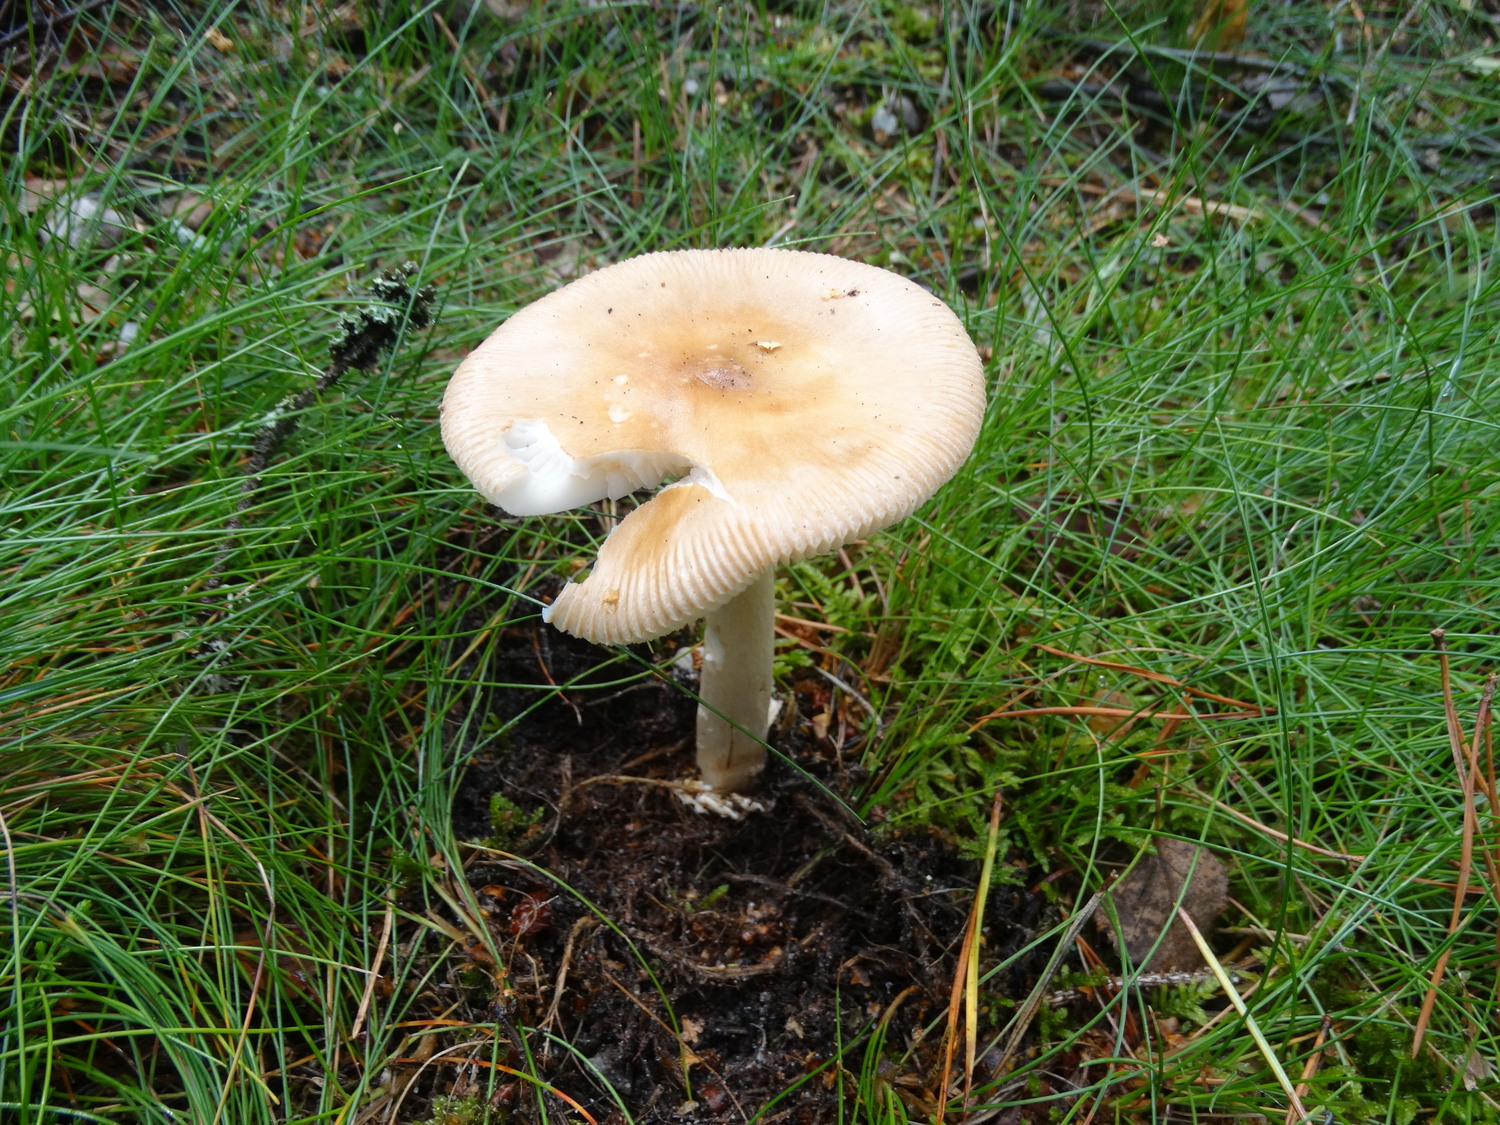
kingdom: Fungi
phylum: Basidiomycota
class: Agaricomycetes
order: Agaricales
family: Amanitaceae
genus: Amanita
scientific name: Amanita fulva
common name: brun kam-fluesvamp
